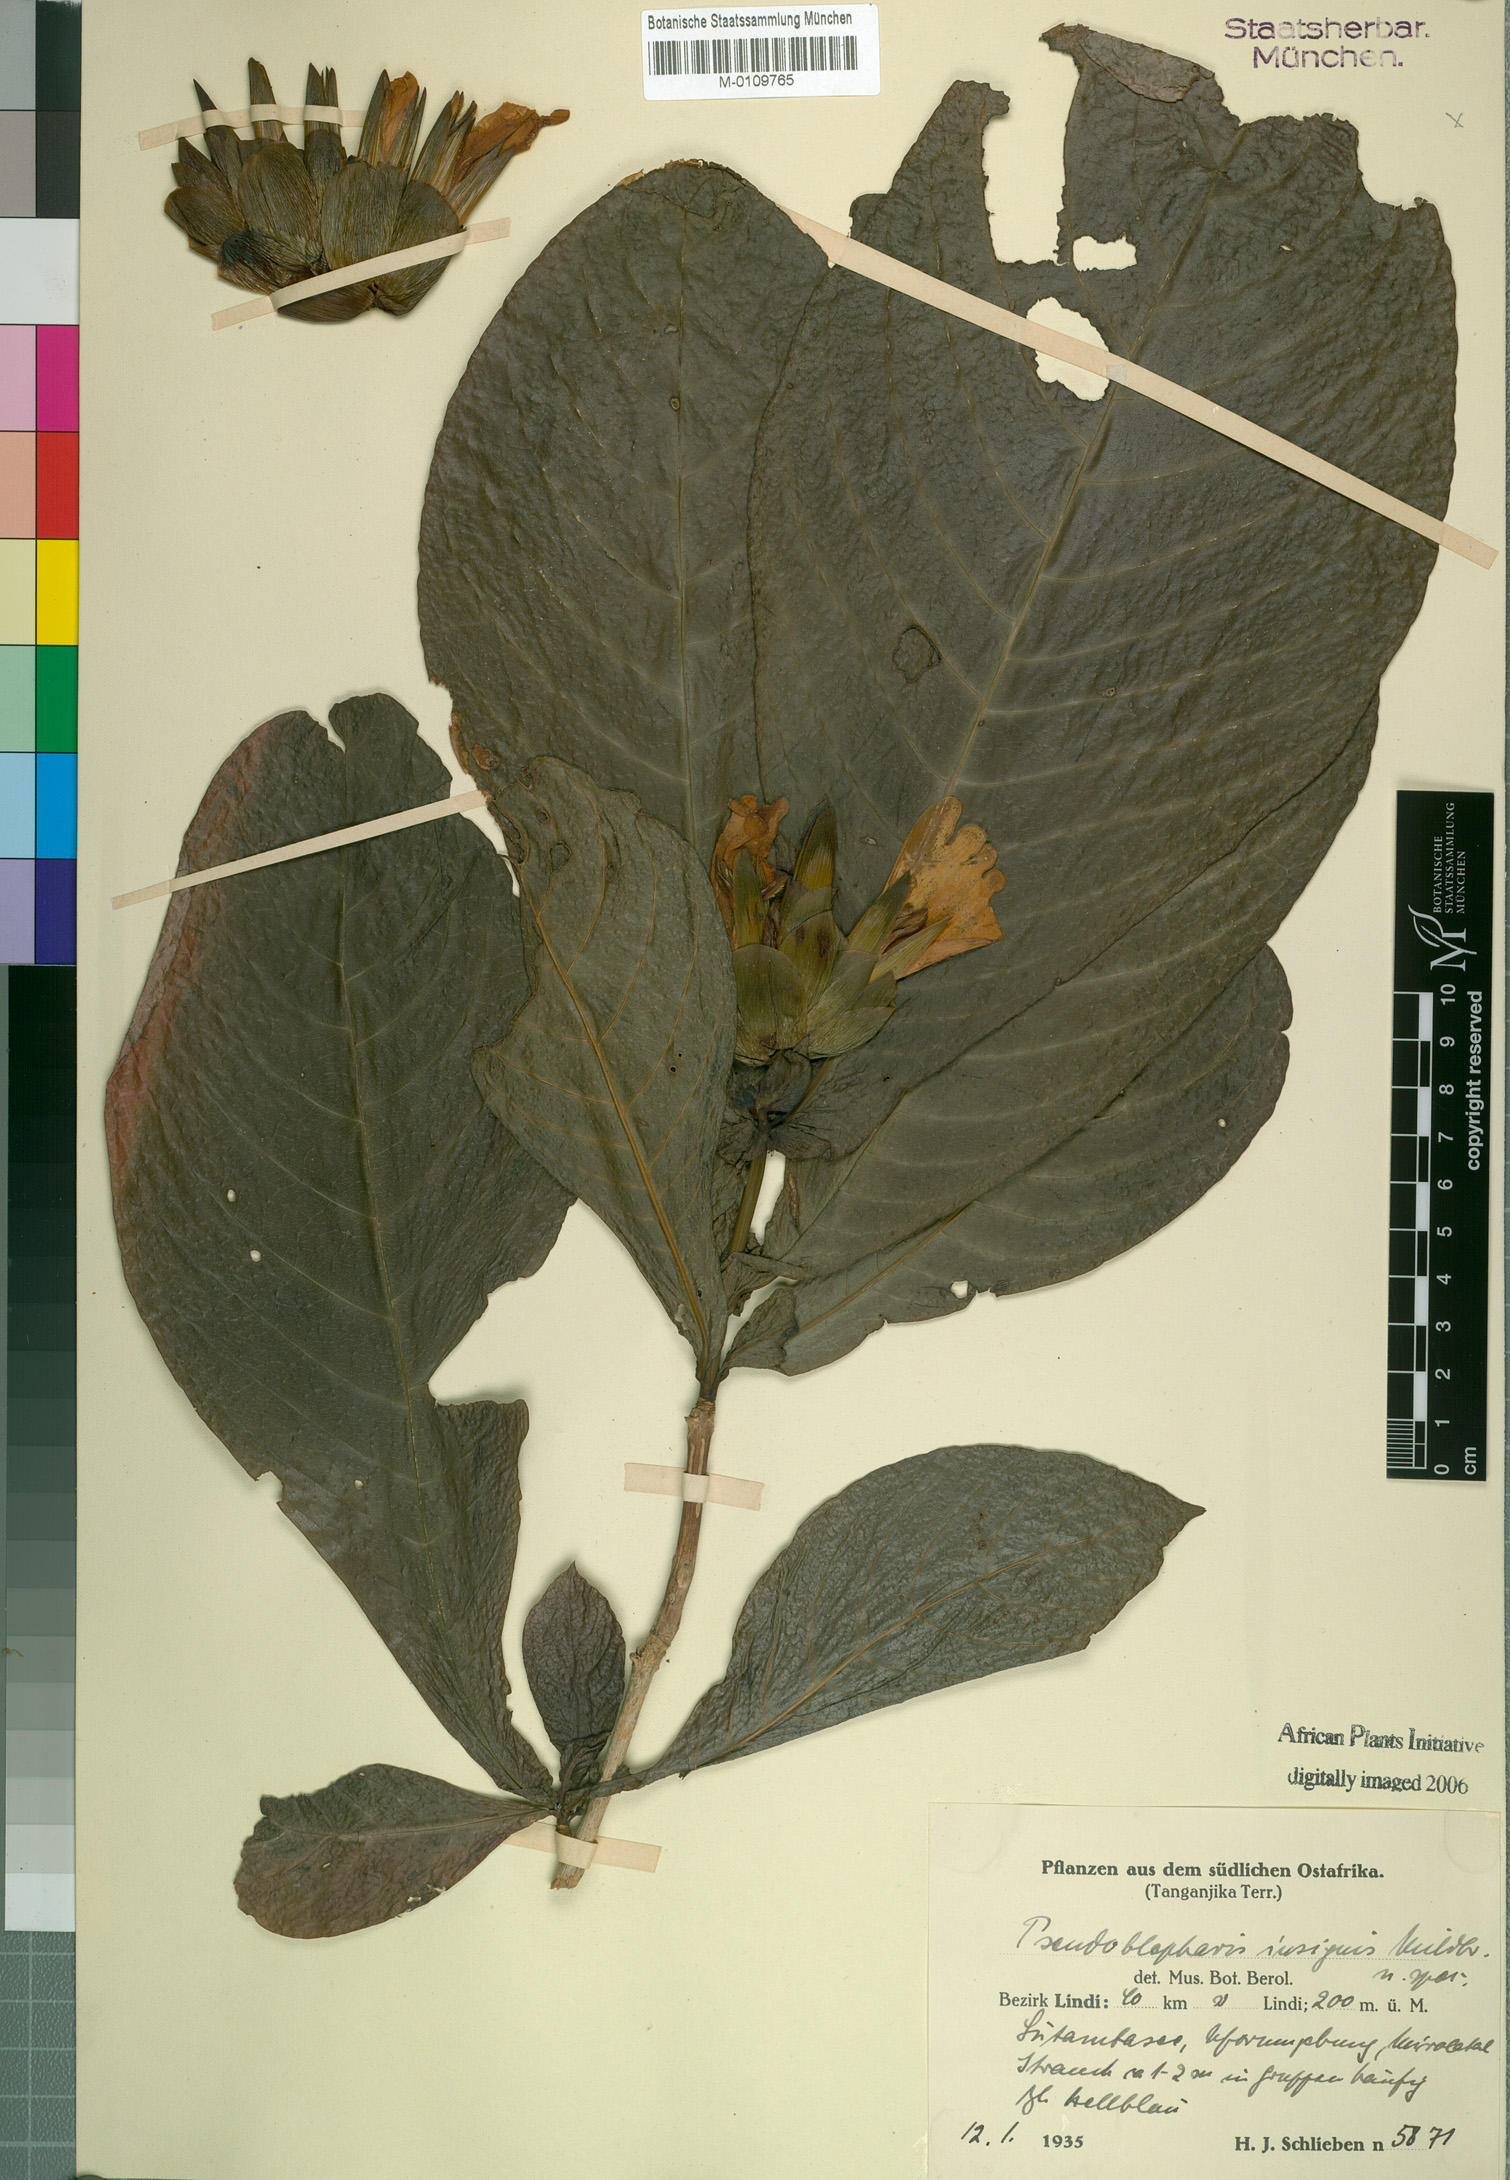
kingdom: Plantae
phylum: Tracheophyta
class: Magnoliopsida
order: Lamiales
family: Acanthaceae
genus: Sclerochiton
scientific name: Sclerochiton insignis
